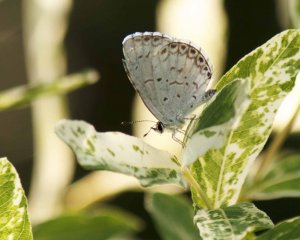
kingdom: Animalia
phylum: Arthropoda
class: Insecta
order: Lepidoptera
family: Lycaenidae
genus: Cyaniris
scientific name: Cyaniris neglecta
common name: Summer Azure
